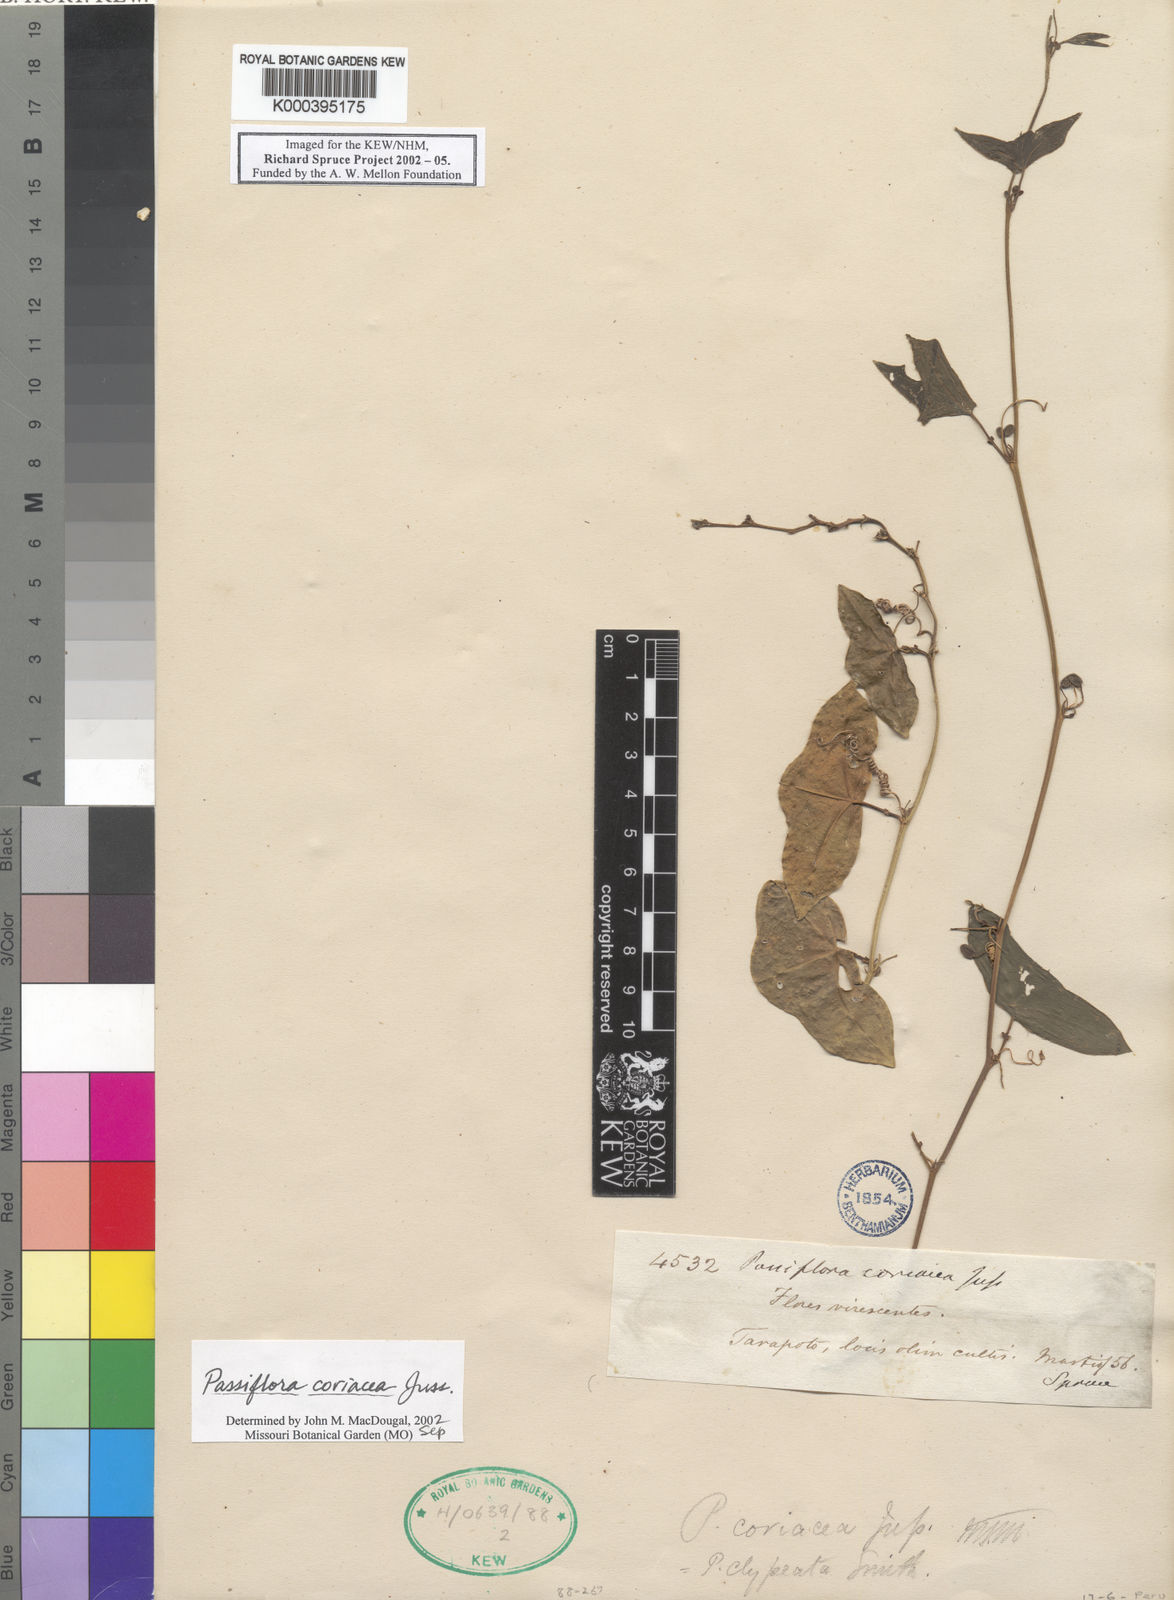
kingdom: Plantae
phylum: Tracheophyta
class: Magnoliopsida
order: Malpighiales
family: Passifloraceae
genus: Passiflora
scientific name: Passiflora coriacea
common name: Bat-leaf passionflower
